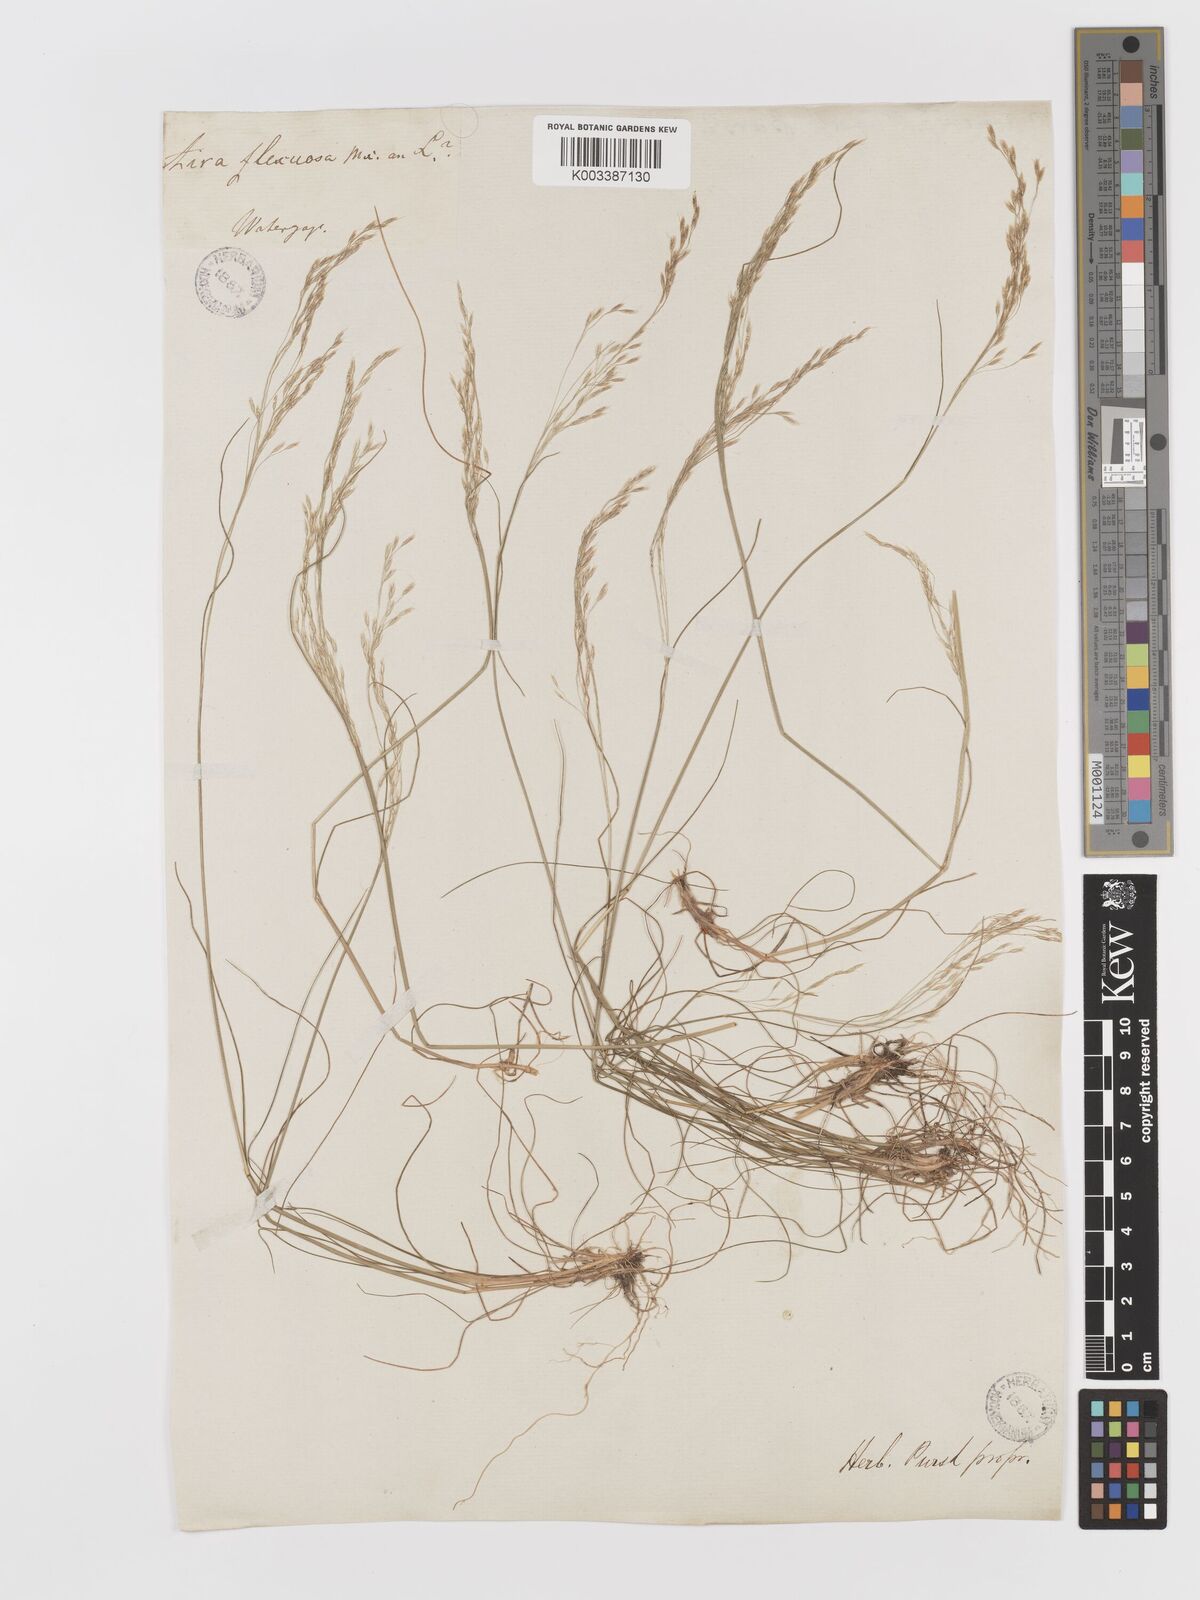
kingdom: Plantae
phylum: Tracheophyta
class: Liliopsida
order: Poales
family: Poaceae
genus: Avenella
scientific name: Avenella flexuosa
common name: Wavy hairgrass
